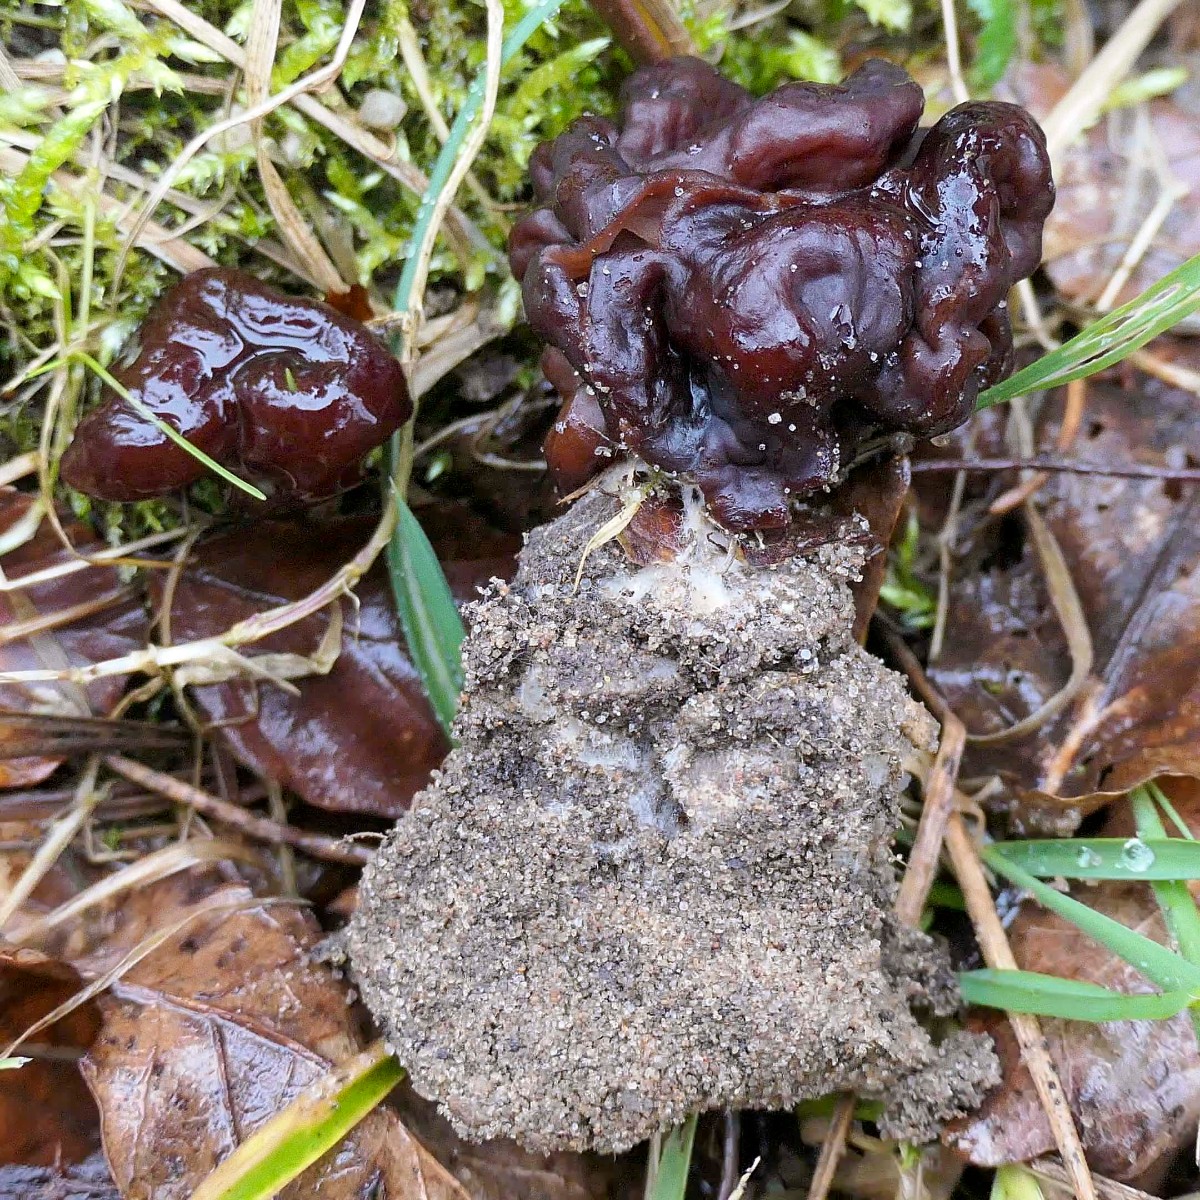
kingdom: Fungi
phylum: Ascomycota
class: Pezizomycetes
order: Pezizales
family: Discinaceae
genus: Gyromitra
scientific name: Gyromitra esculenta
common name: ægte stenmorkel
